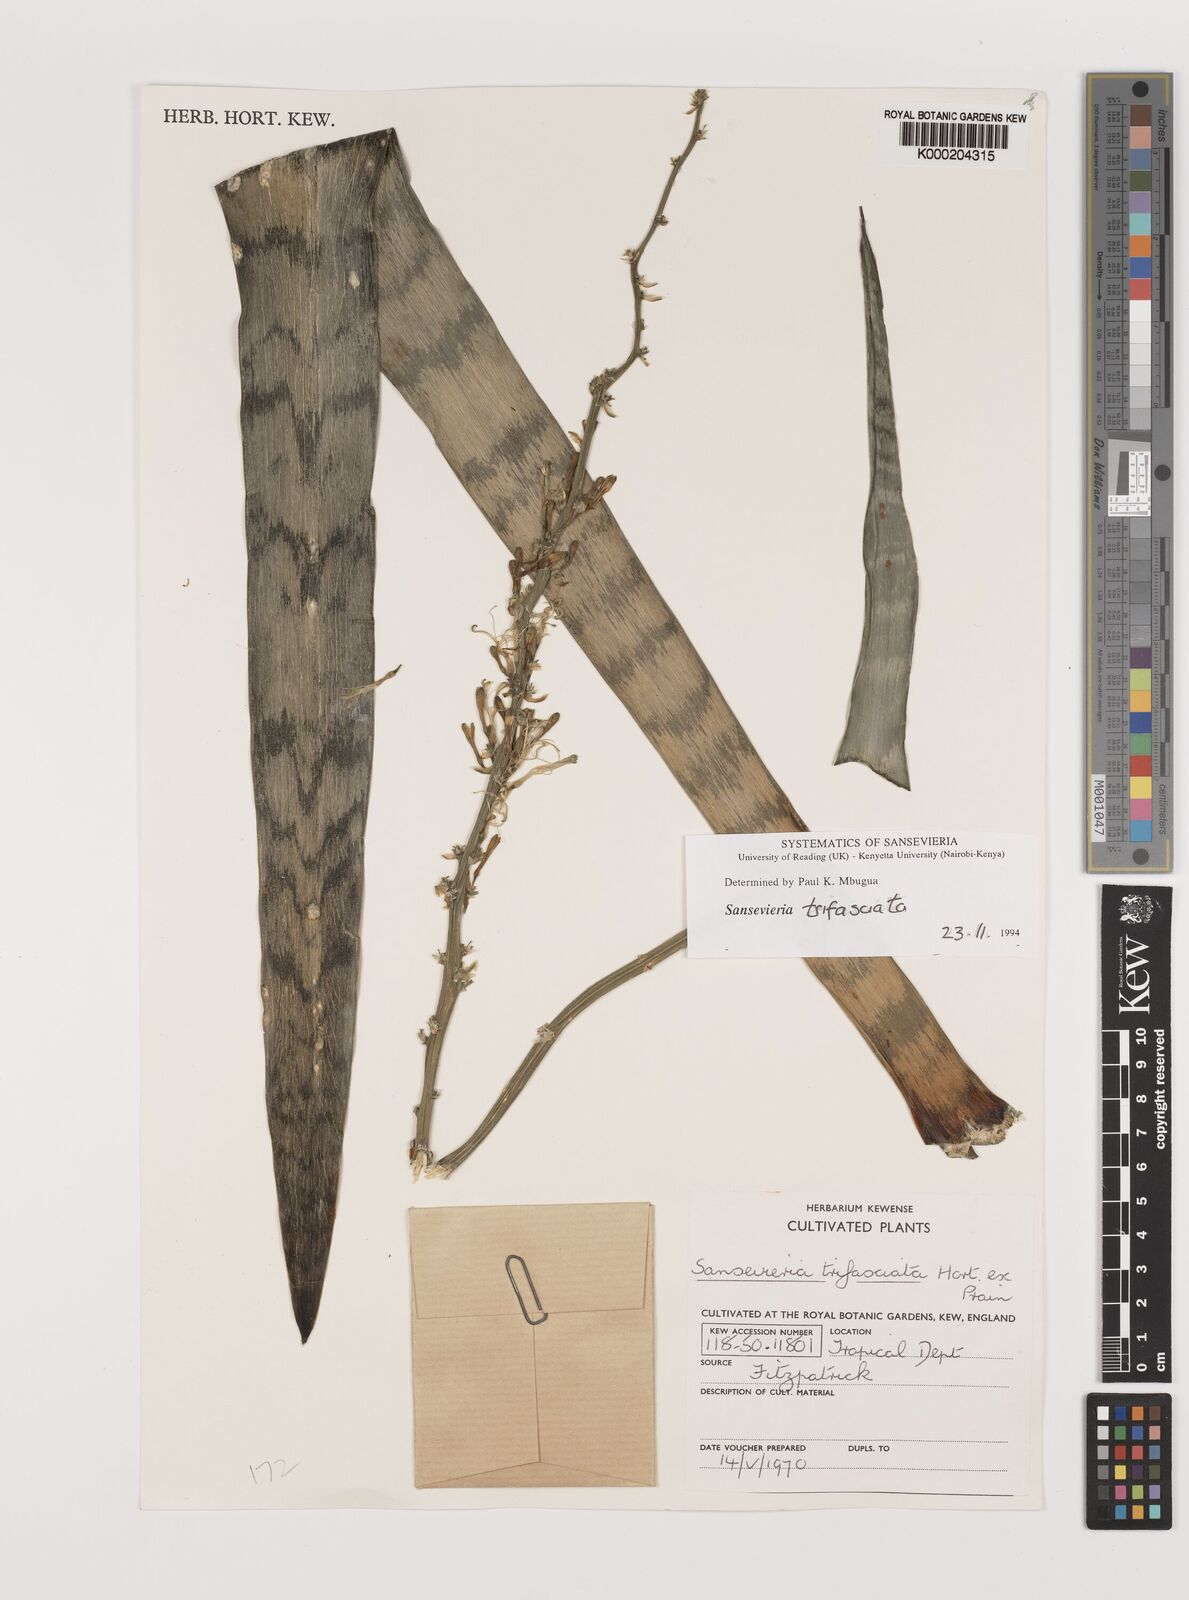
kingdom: Plantae
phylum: Tracheophyta
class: Liliopsida
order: Asparagales
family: Asparagaceae
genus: Dracaena
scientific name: Dracaena trifasciata
